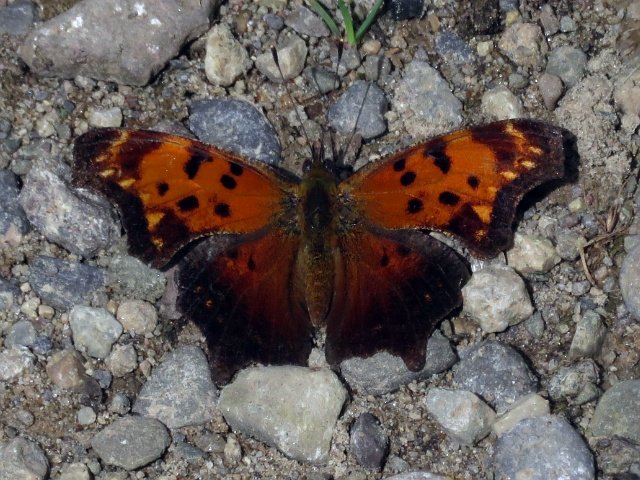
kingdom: Animalia
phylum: Arthropoda
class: Insecta
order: Lepidoptera
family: Nymphalidae
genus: Polygonia
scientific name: Polygonia comma
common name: Eastern Comma
